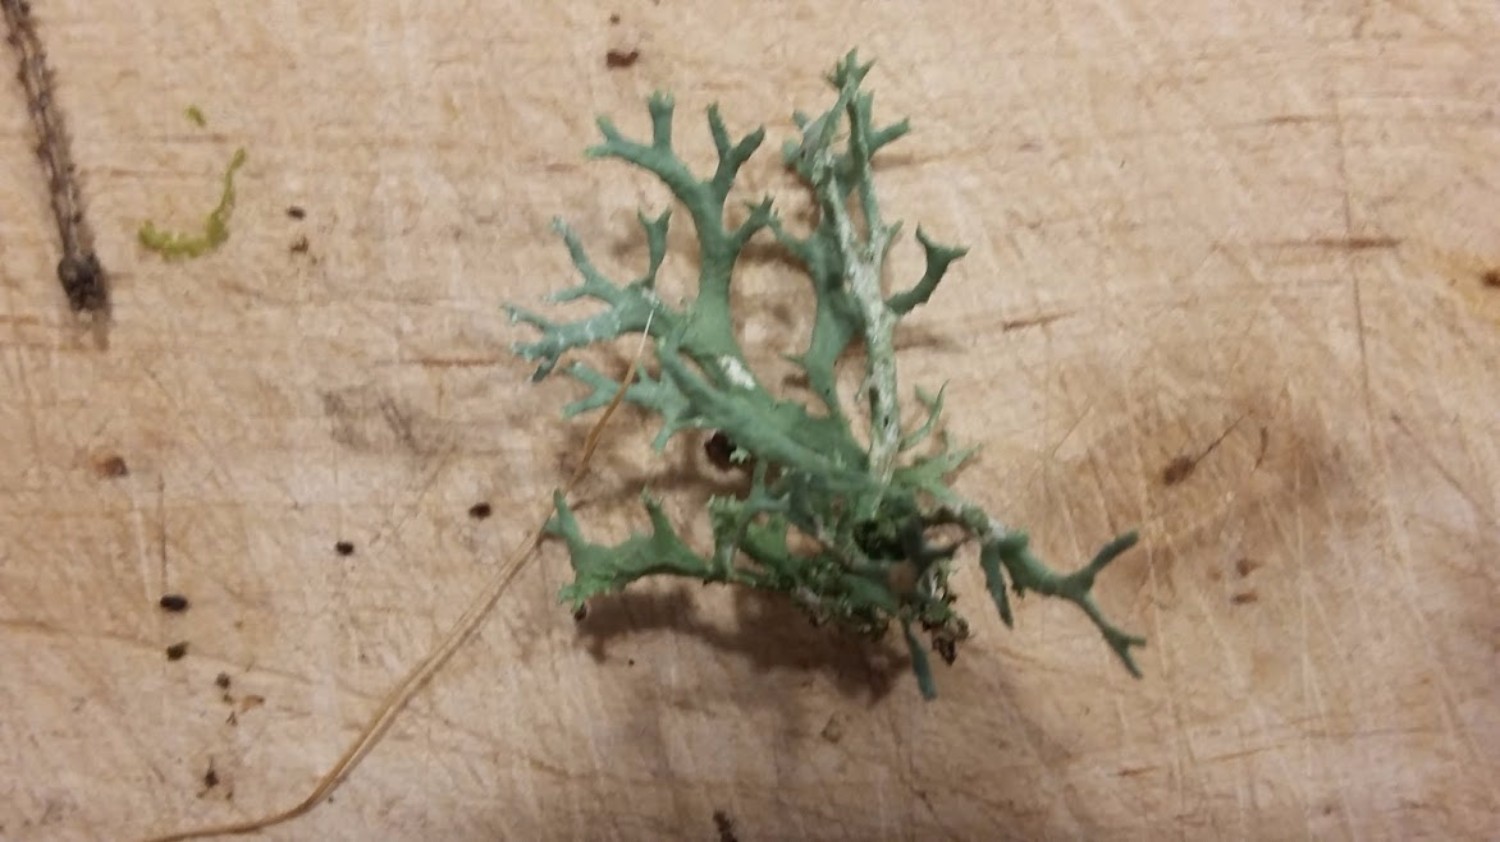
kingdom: Fungi
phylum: Ascomycota
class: Lecanoromycetes
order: Lecanorales
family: Parmeliaceae
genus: Evernia
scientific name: Evernia prunastri
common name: almindelig slåenlav
